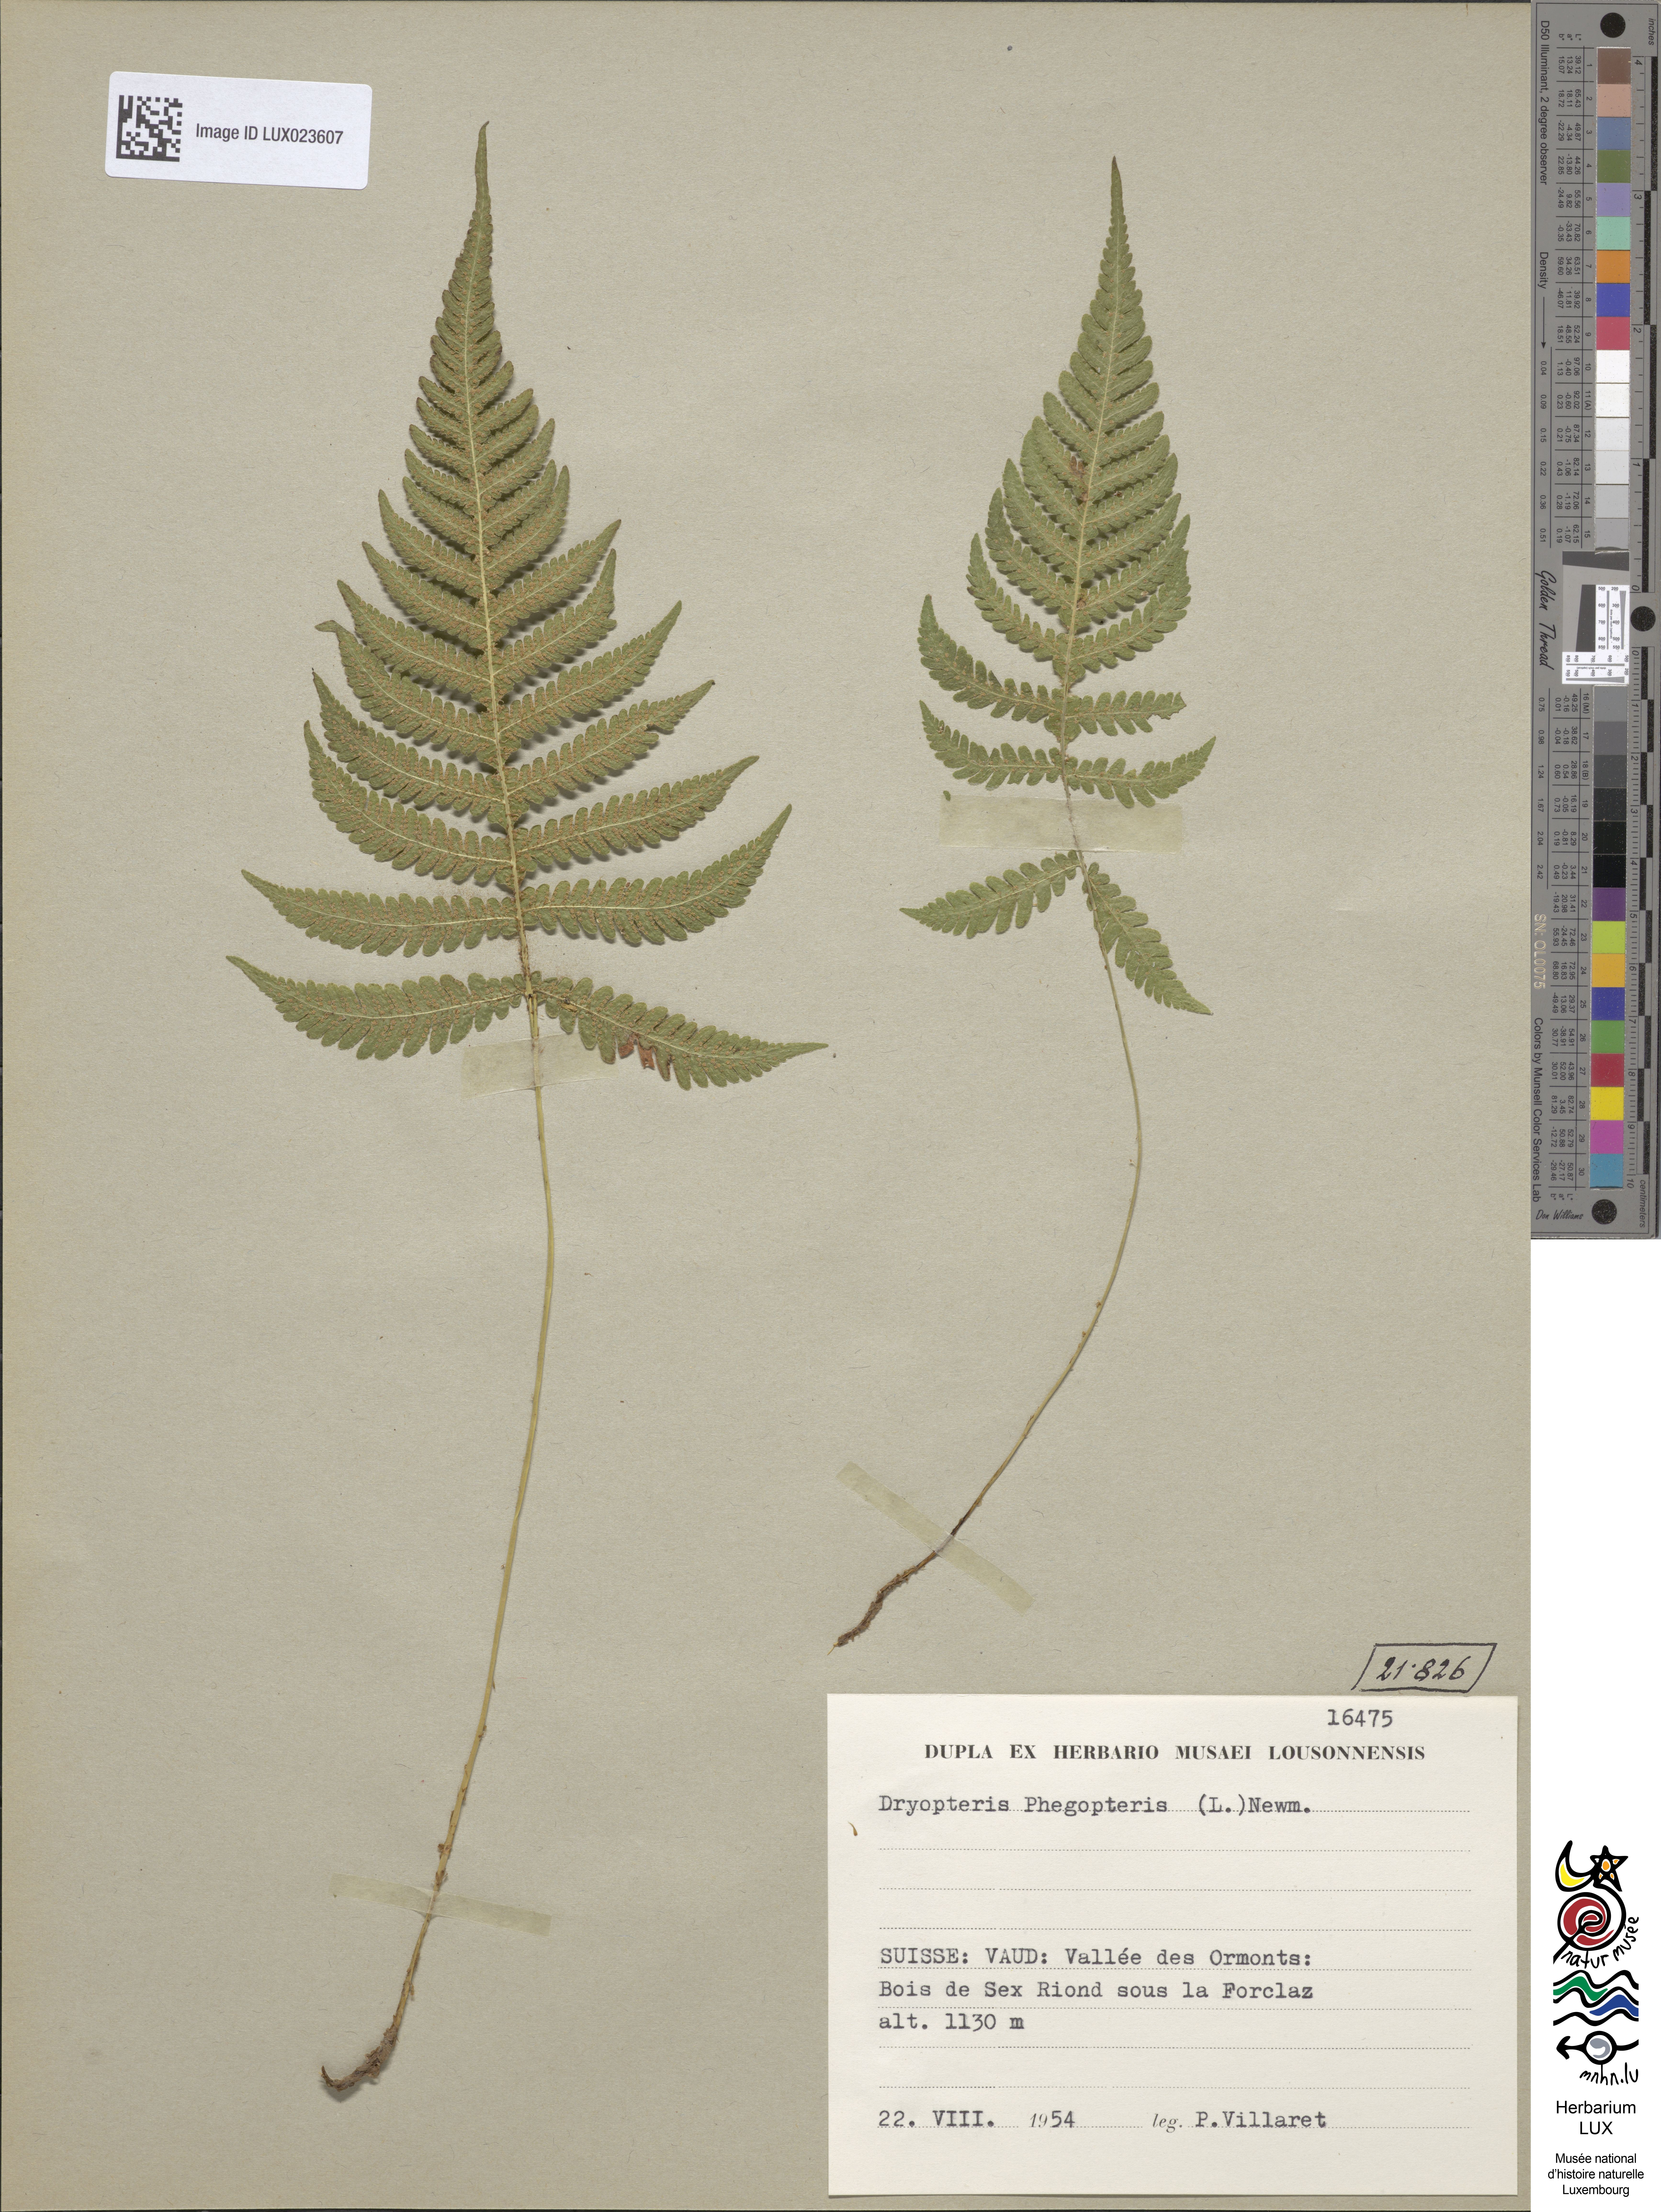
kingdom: Plantae
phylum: Tracheophyta
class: Polypodiopsida
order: Polypodiales
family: Thelypteridaceae
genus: Phegopteris
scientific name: Phegopteris connectilis
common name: Beech fern
